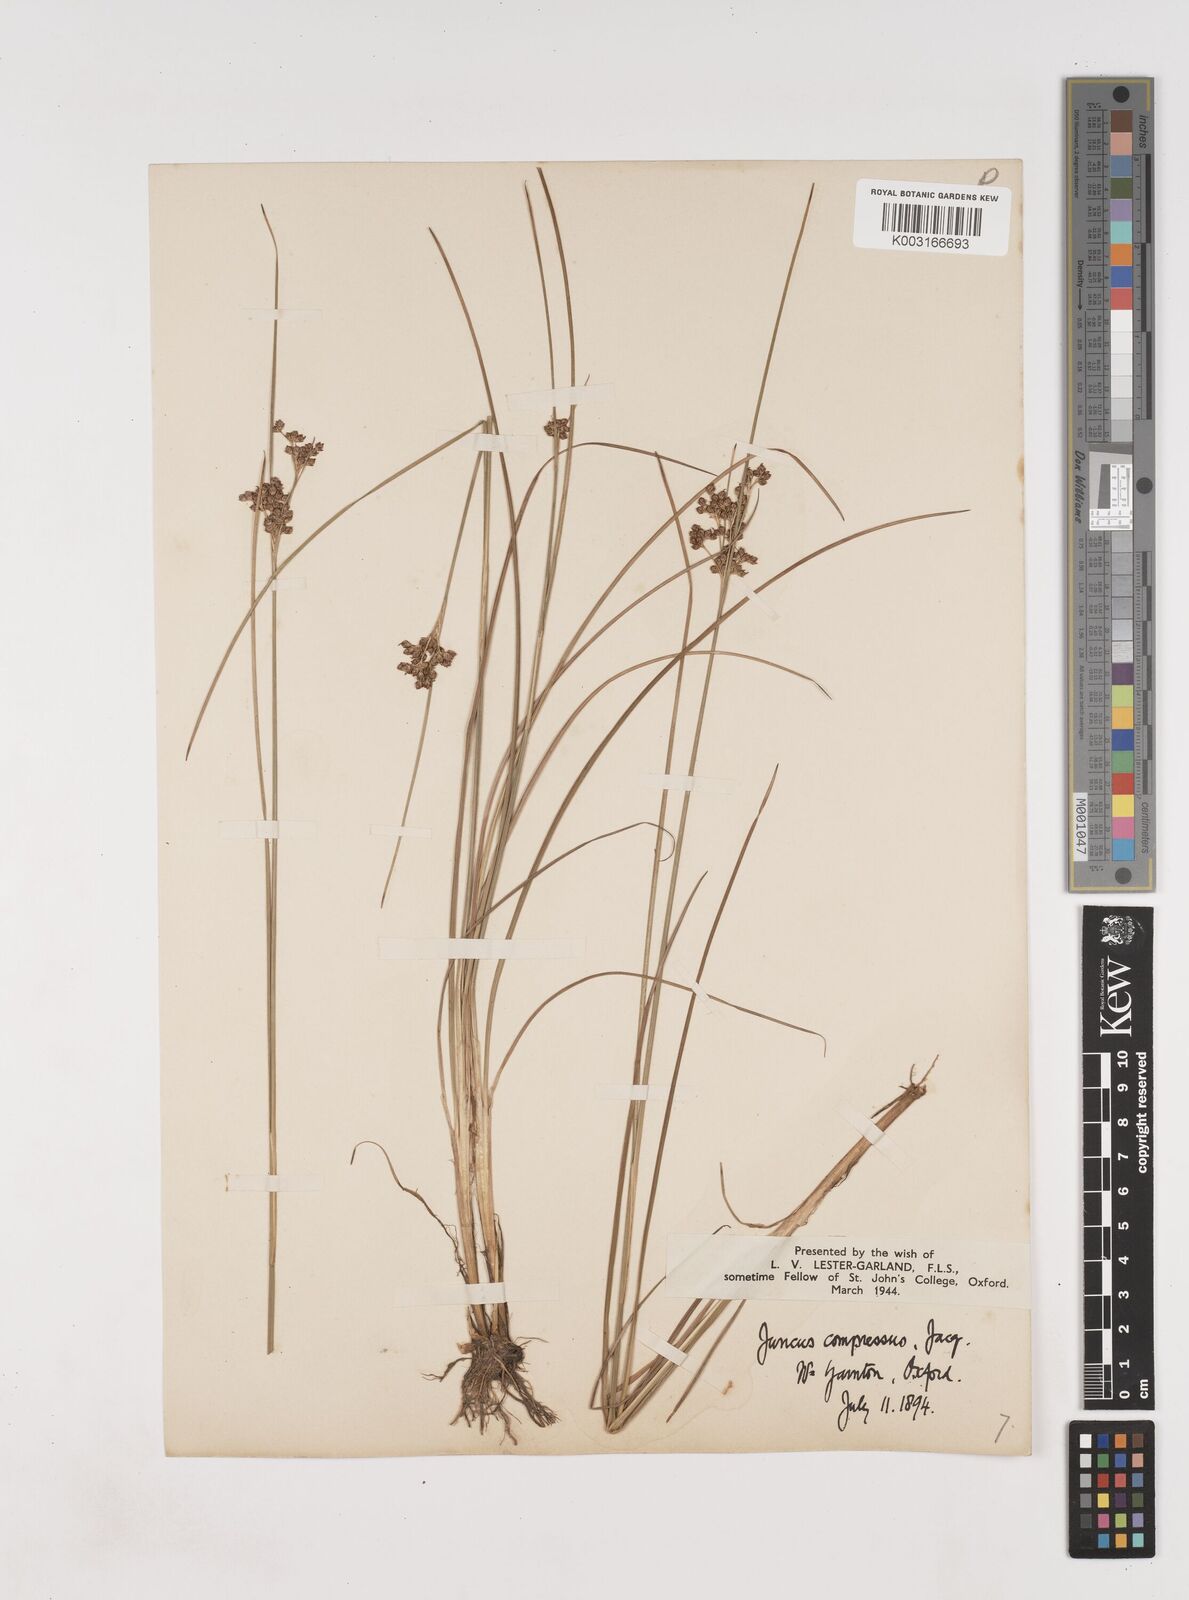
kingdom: Plantae
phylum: Tracheophyta
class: Liliopsida
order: Poales
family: Juncaceae
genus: Juncus
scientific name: Juncus compressus
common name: Round-fruited rush
